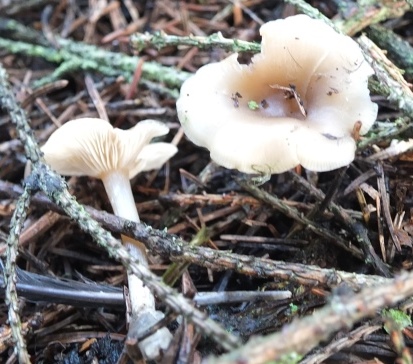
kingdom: Fungi
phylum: Basidiomycota
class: Agaricomycetes
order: Agaricales
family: Tricholomataceae
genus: Clitocybe
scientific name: Clitocybe metachroa
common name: grå tragthat
